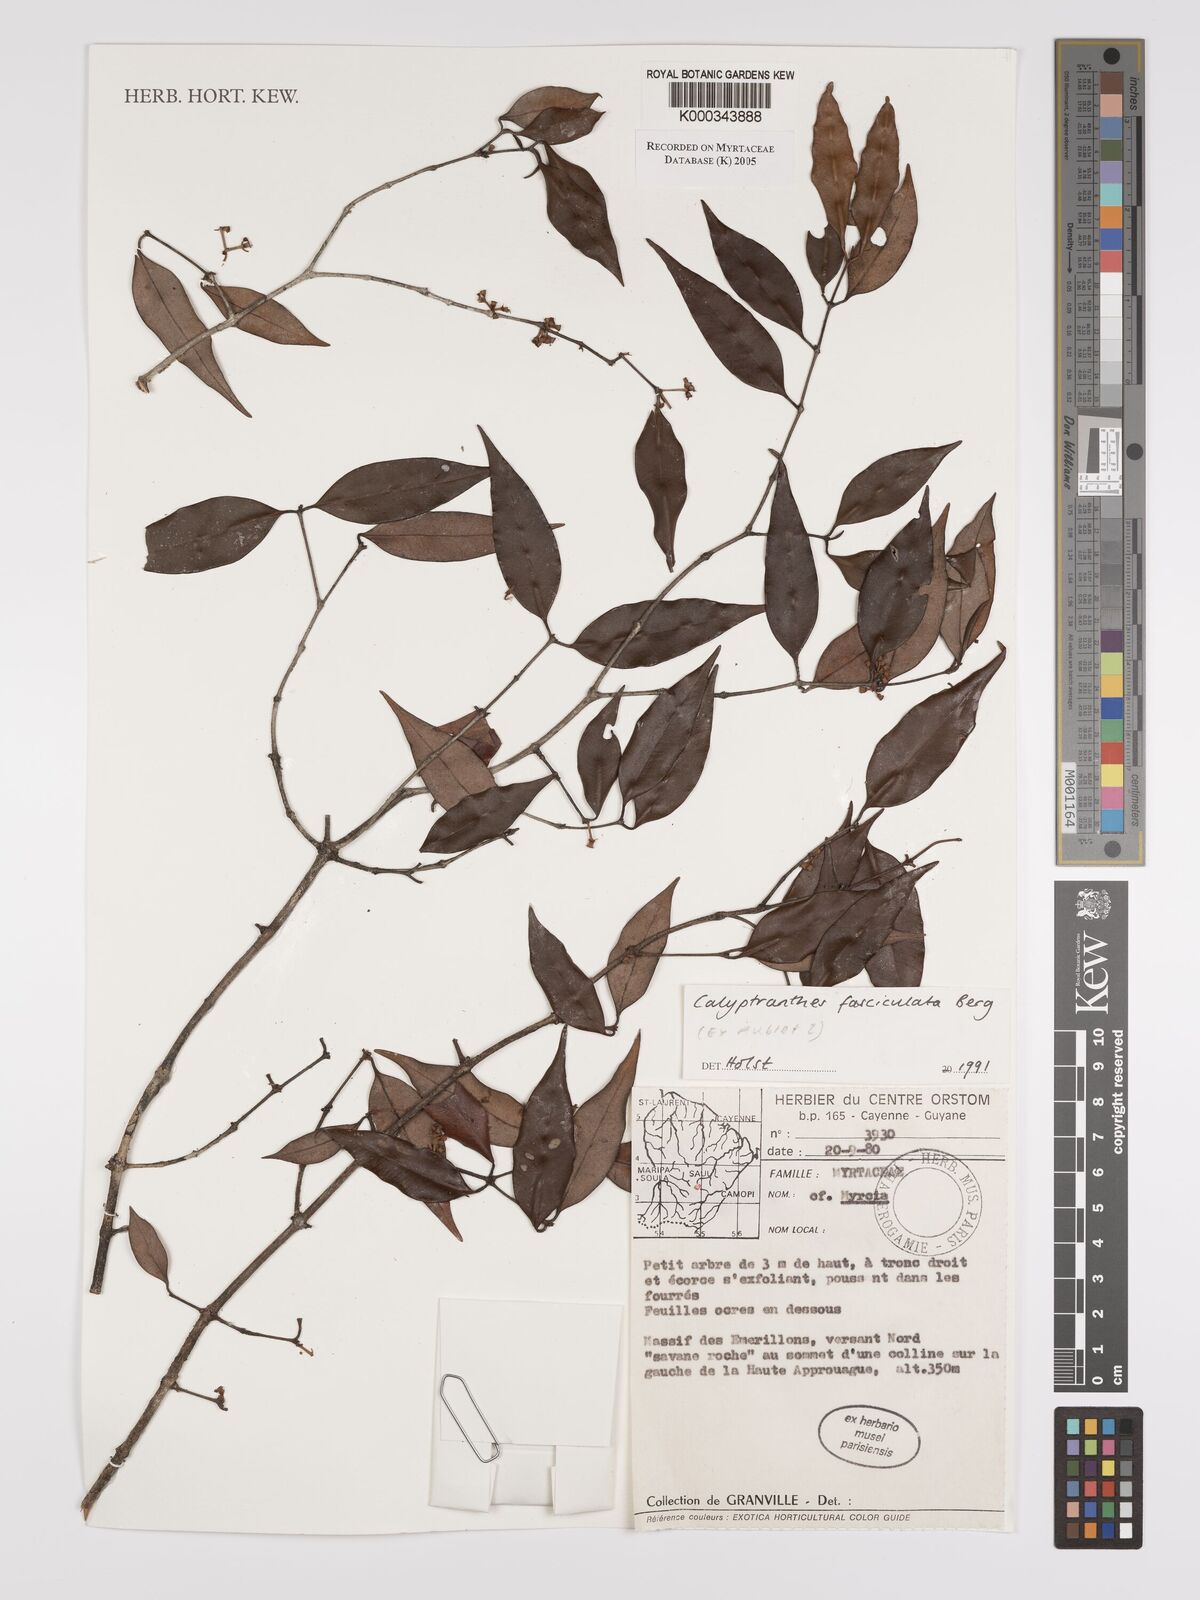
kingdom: Plantae
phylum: Tracheophyta
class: Magnoliopsida
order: Myrtales
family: Myrtaceae
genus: Myrcia
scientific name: Myrcia fasciculata
